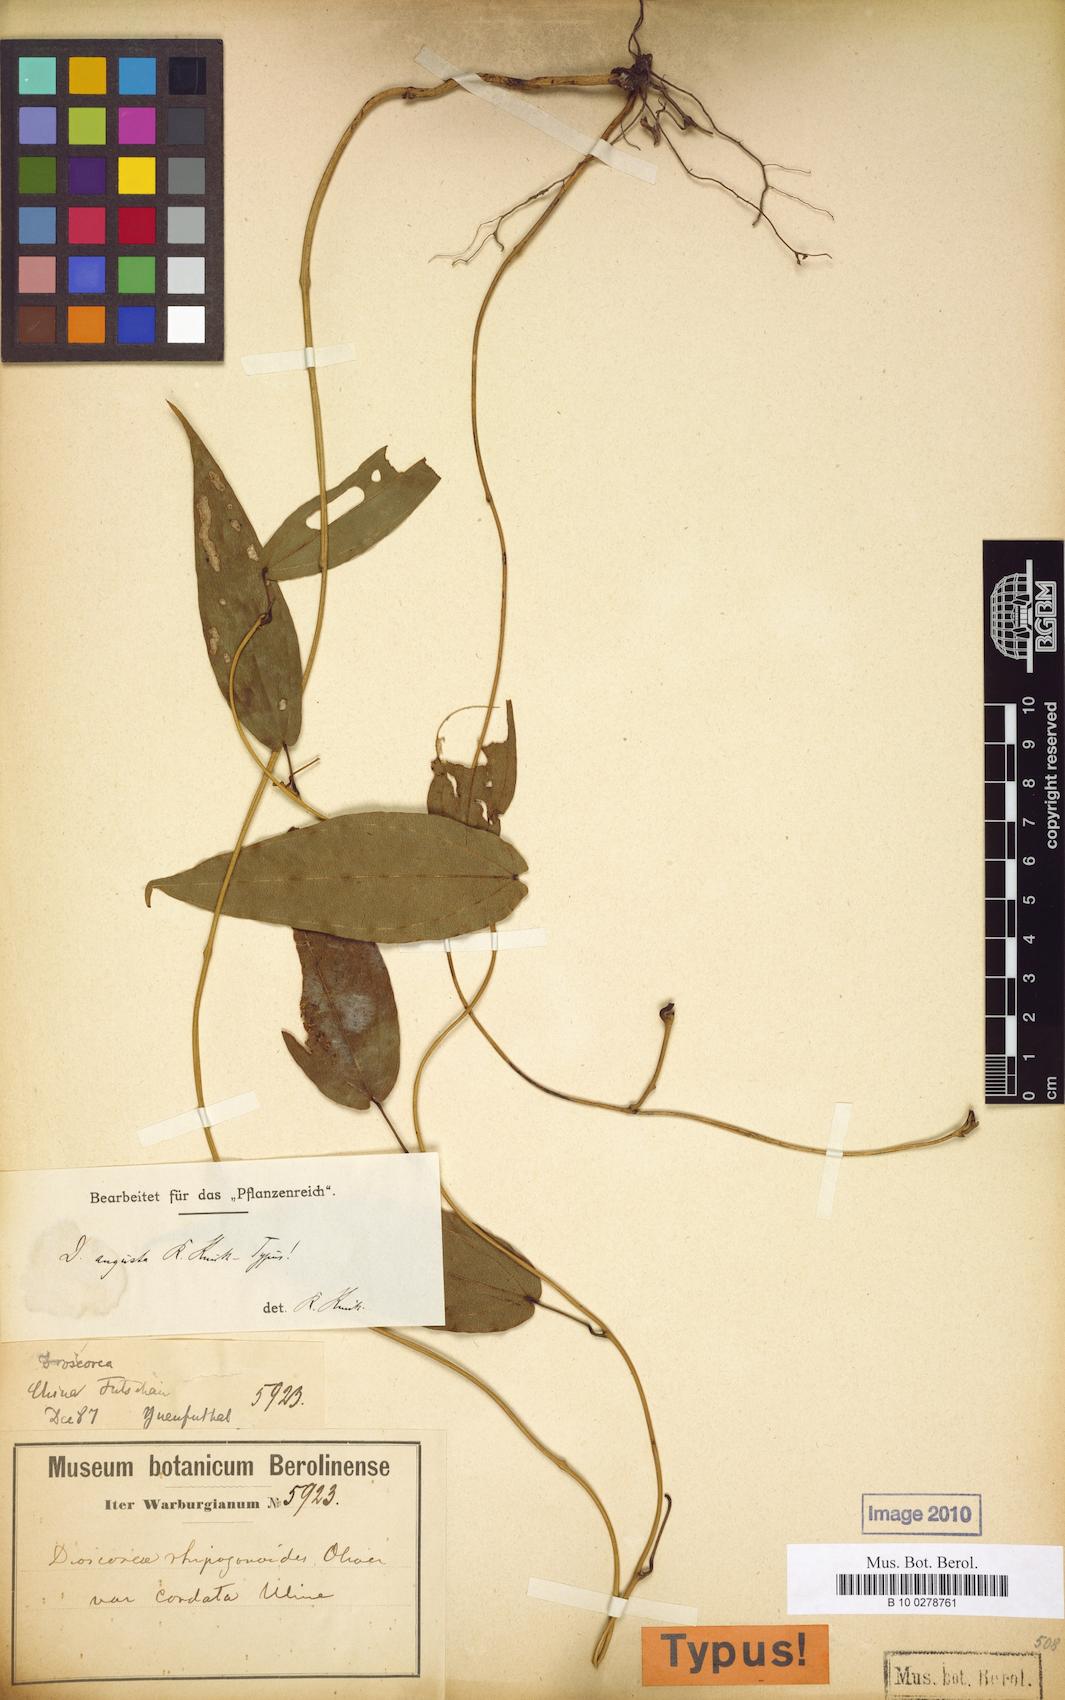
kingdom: Plantae
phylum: Tracheophyta
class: Liliopsida
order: Dioscoreales
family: Dioscoreaceae
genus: Dioscorea
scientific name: Dioscorea cirrhosa
